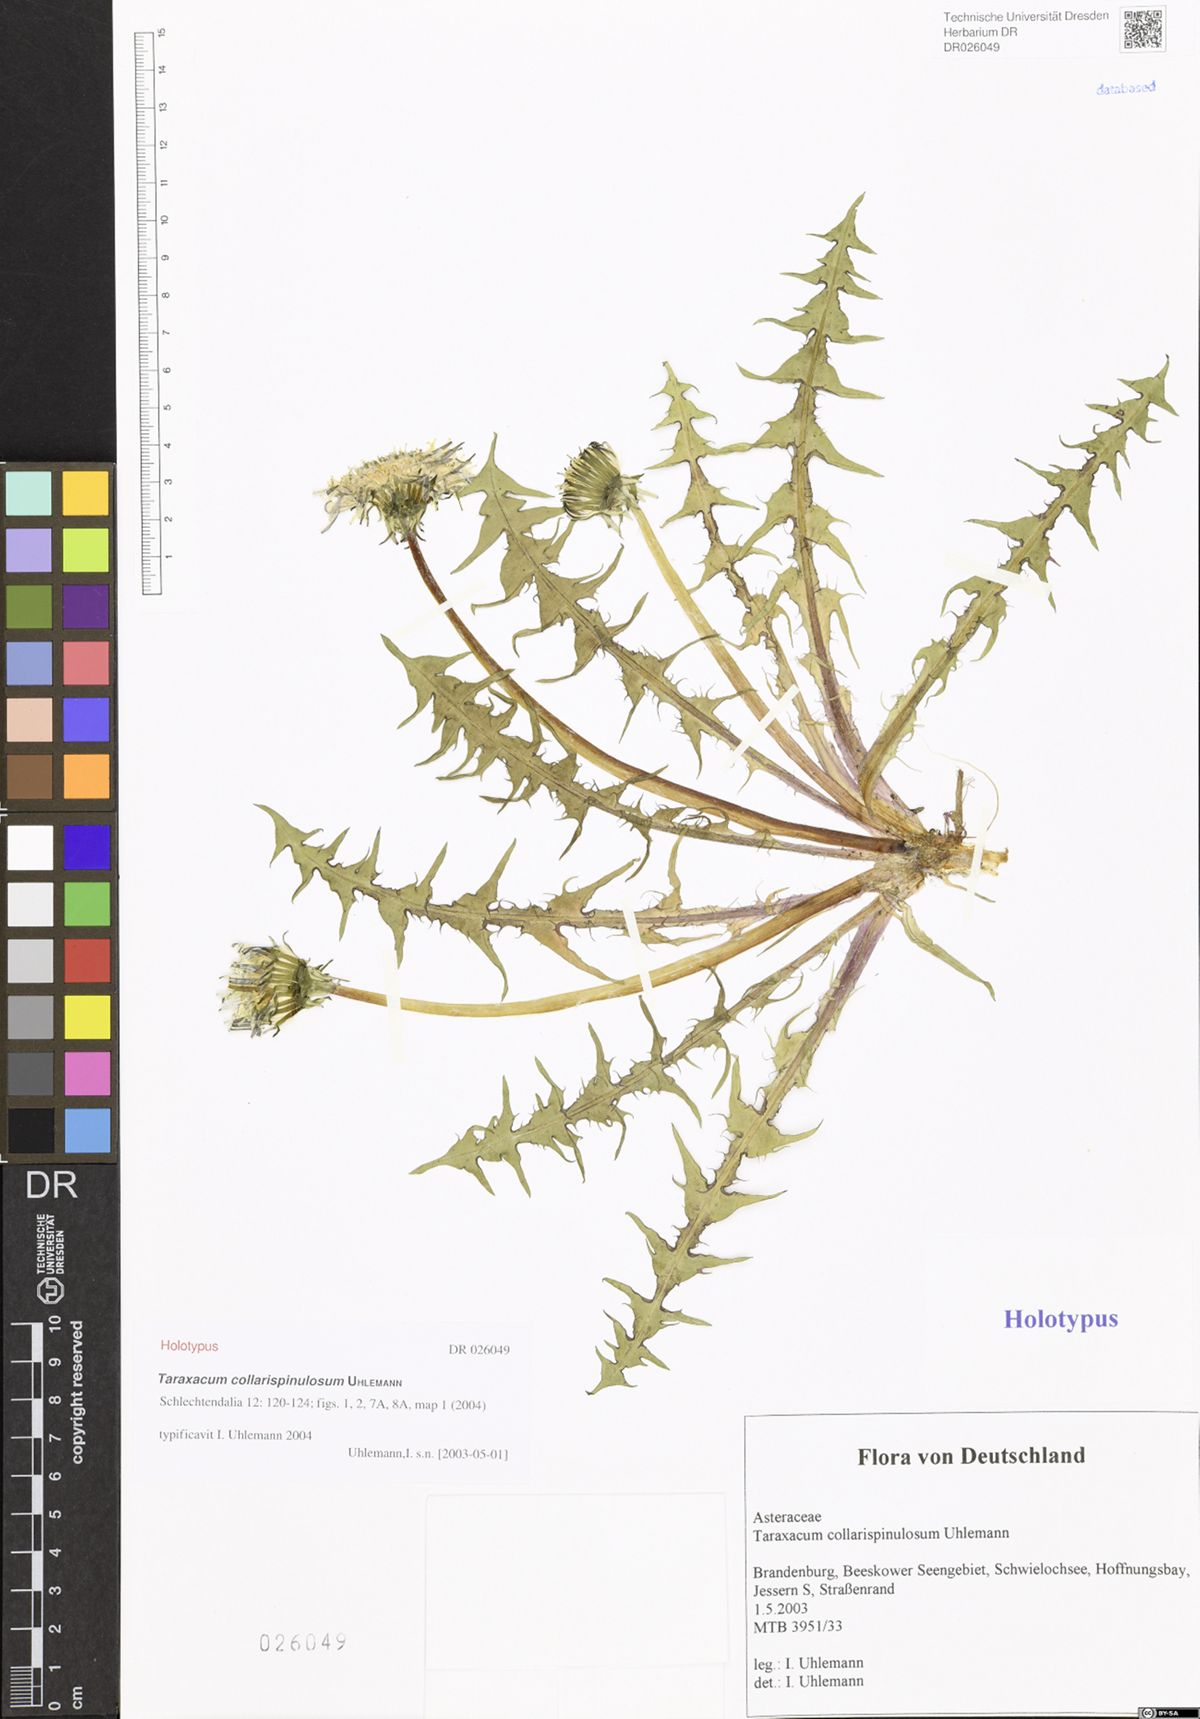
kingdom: Plantae
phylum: Tracheophyta
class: Magnoliopsida
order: Asterales
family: Asteraceae
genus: Taraxacum
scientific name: Taraxacum collarispinulosum
